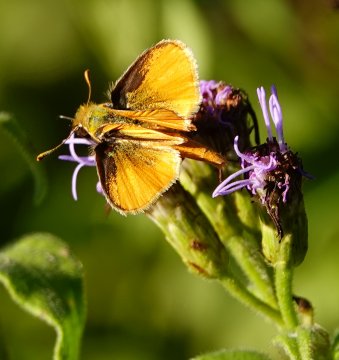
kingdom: Animalia
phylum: Arthropoda
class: Insecta
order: Lepidoptera
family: Hesperiidae
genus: Copaeodes
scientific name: Copaeodes minima
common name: Southern Skipperling
